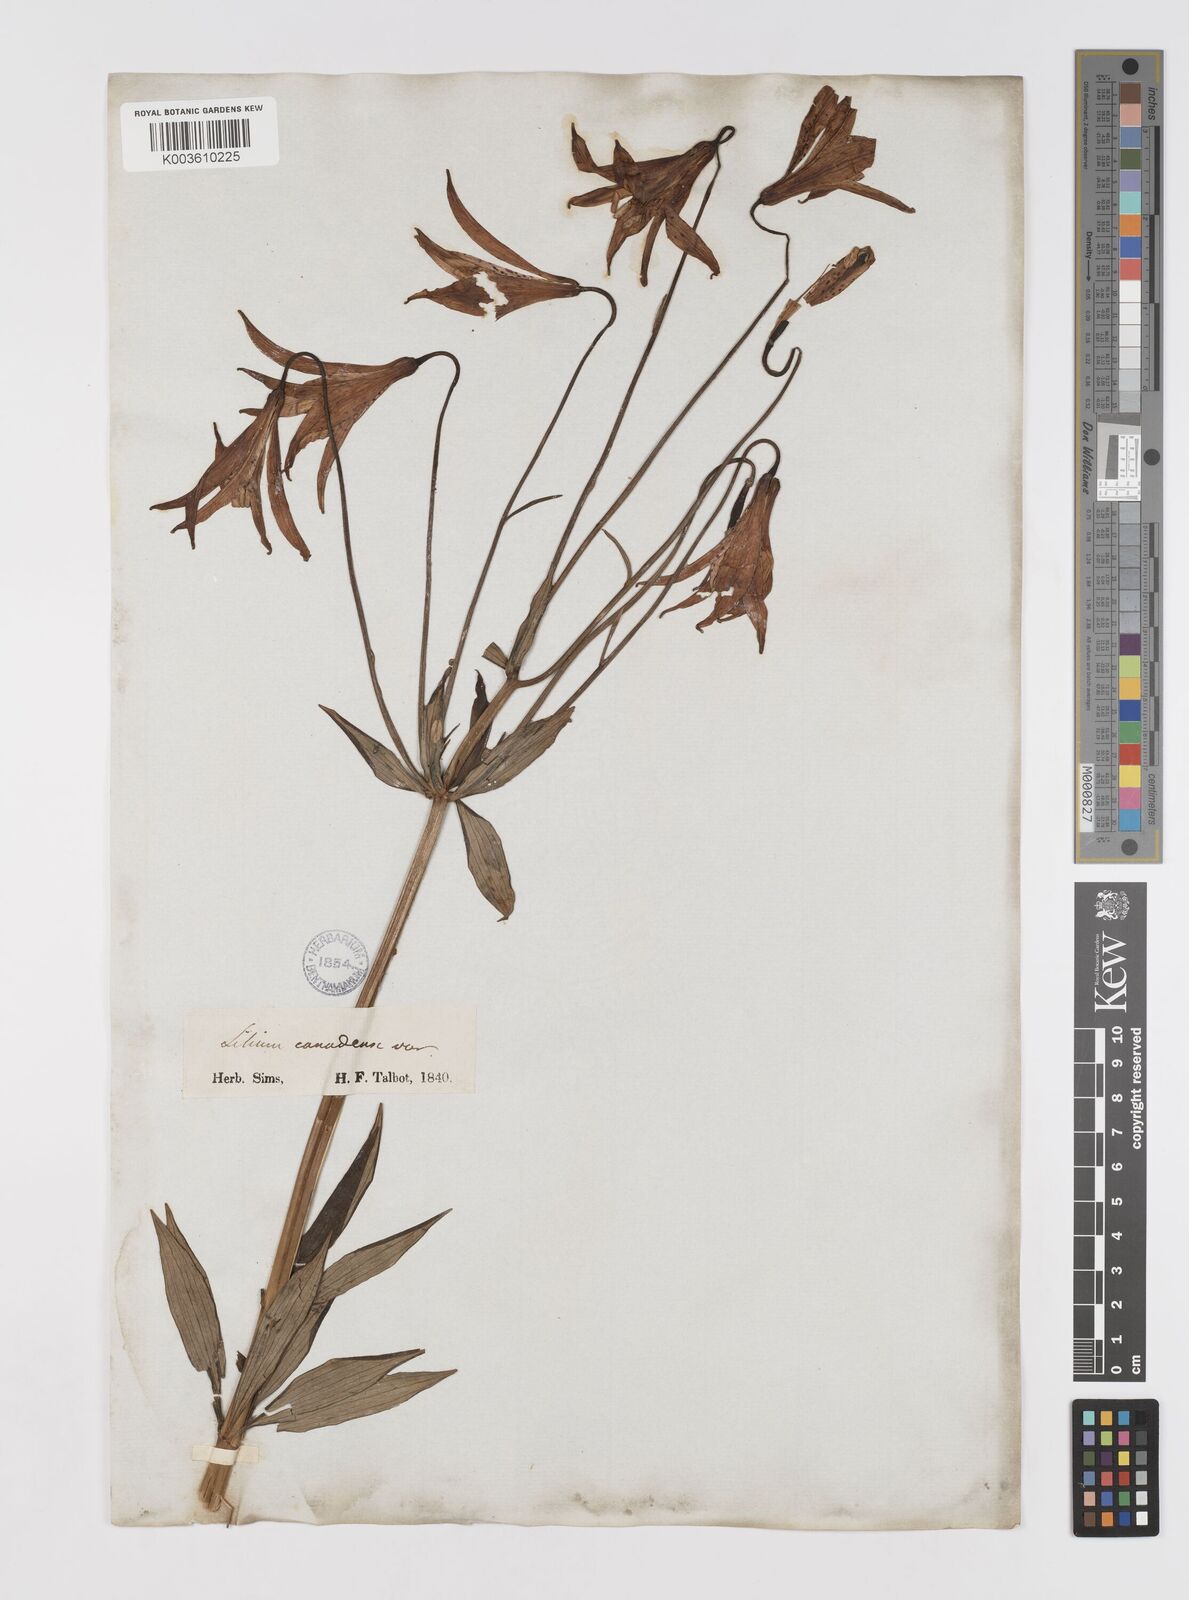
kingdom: Plantae
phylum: Tracheophyta
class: Liliopsida
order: Liliales
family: Liliaceae
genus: Lilium
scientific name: Lilium canadense
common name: Canada lily
